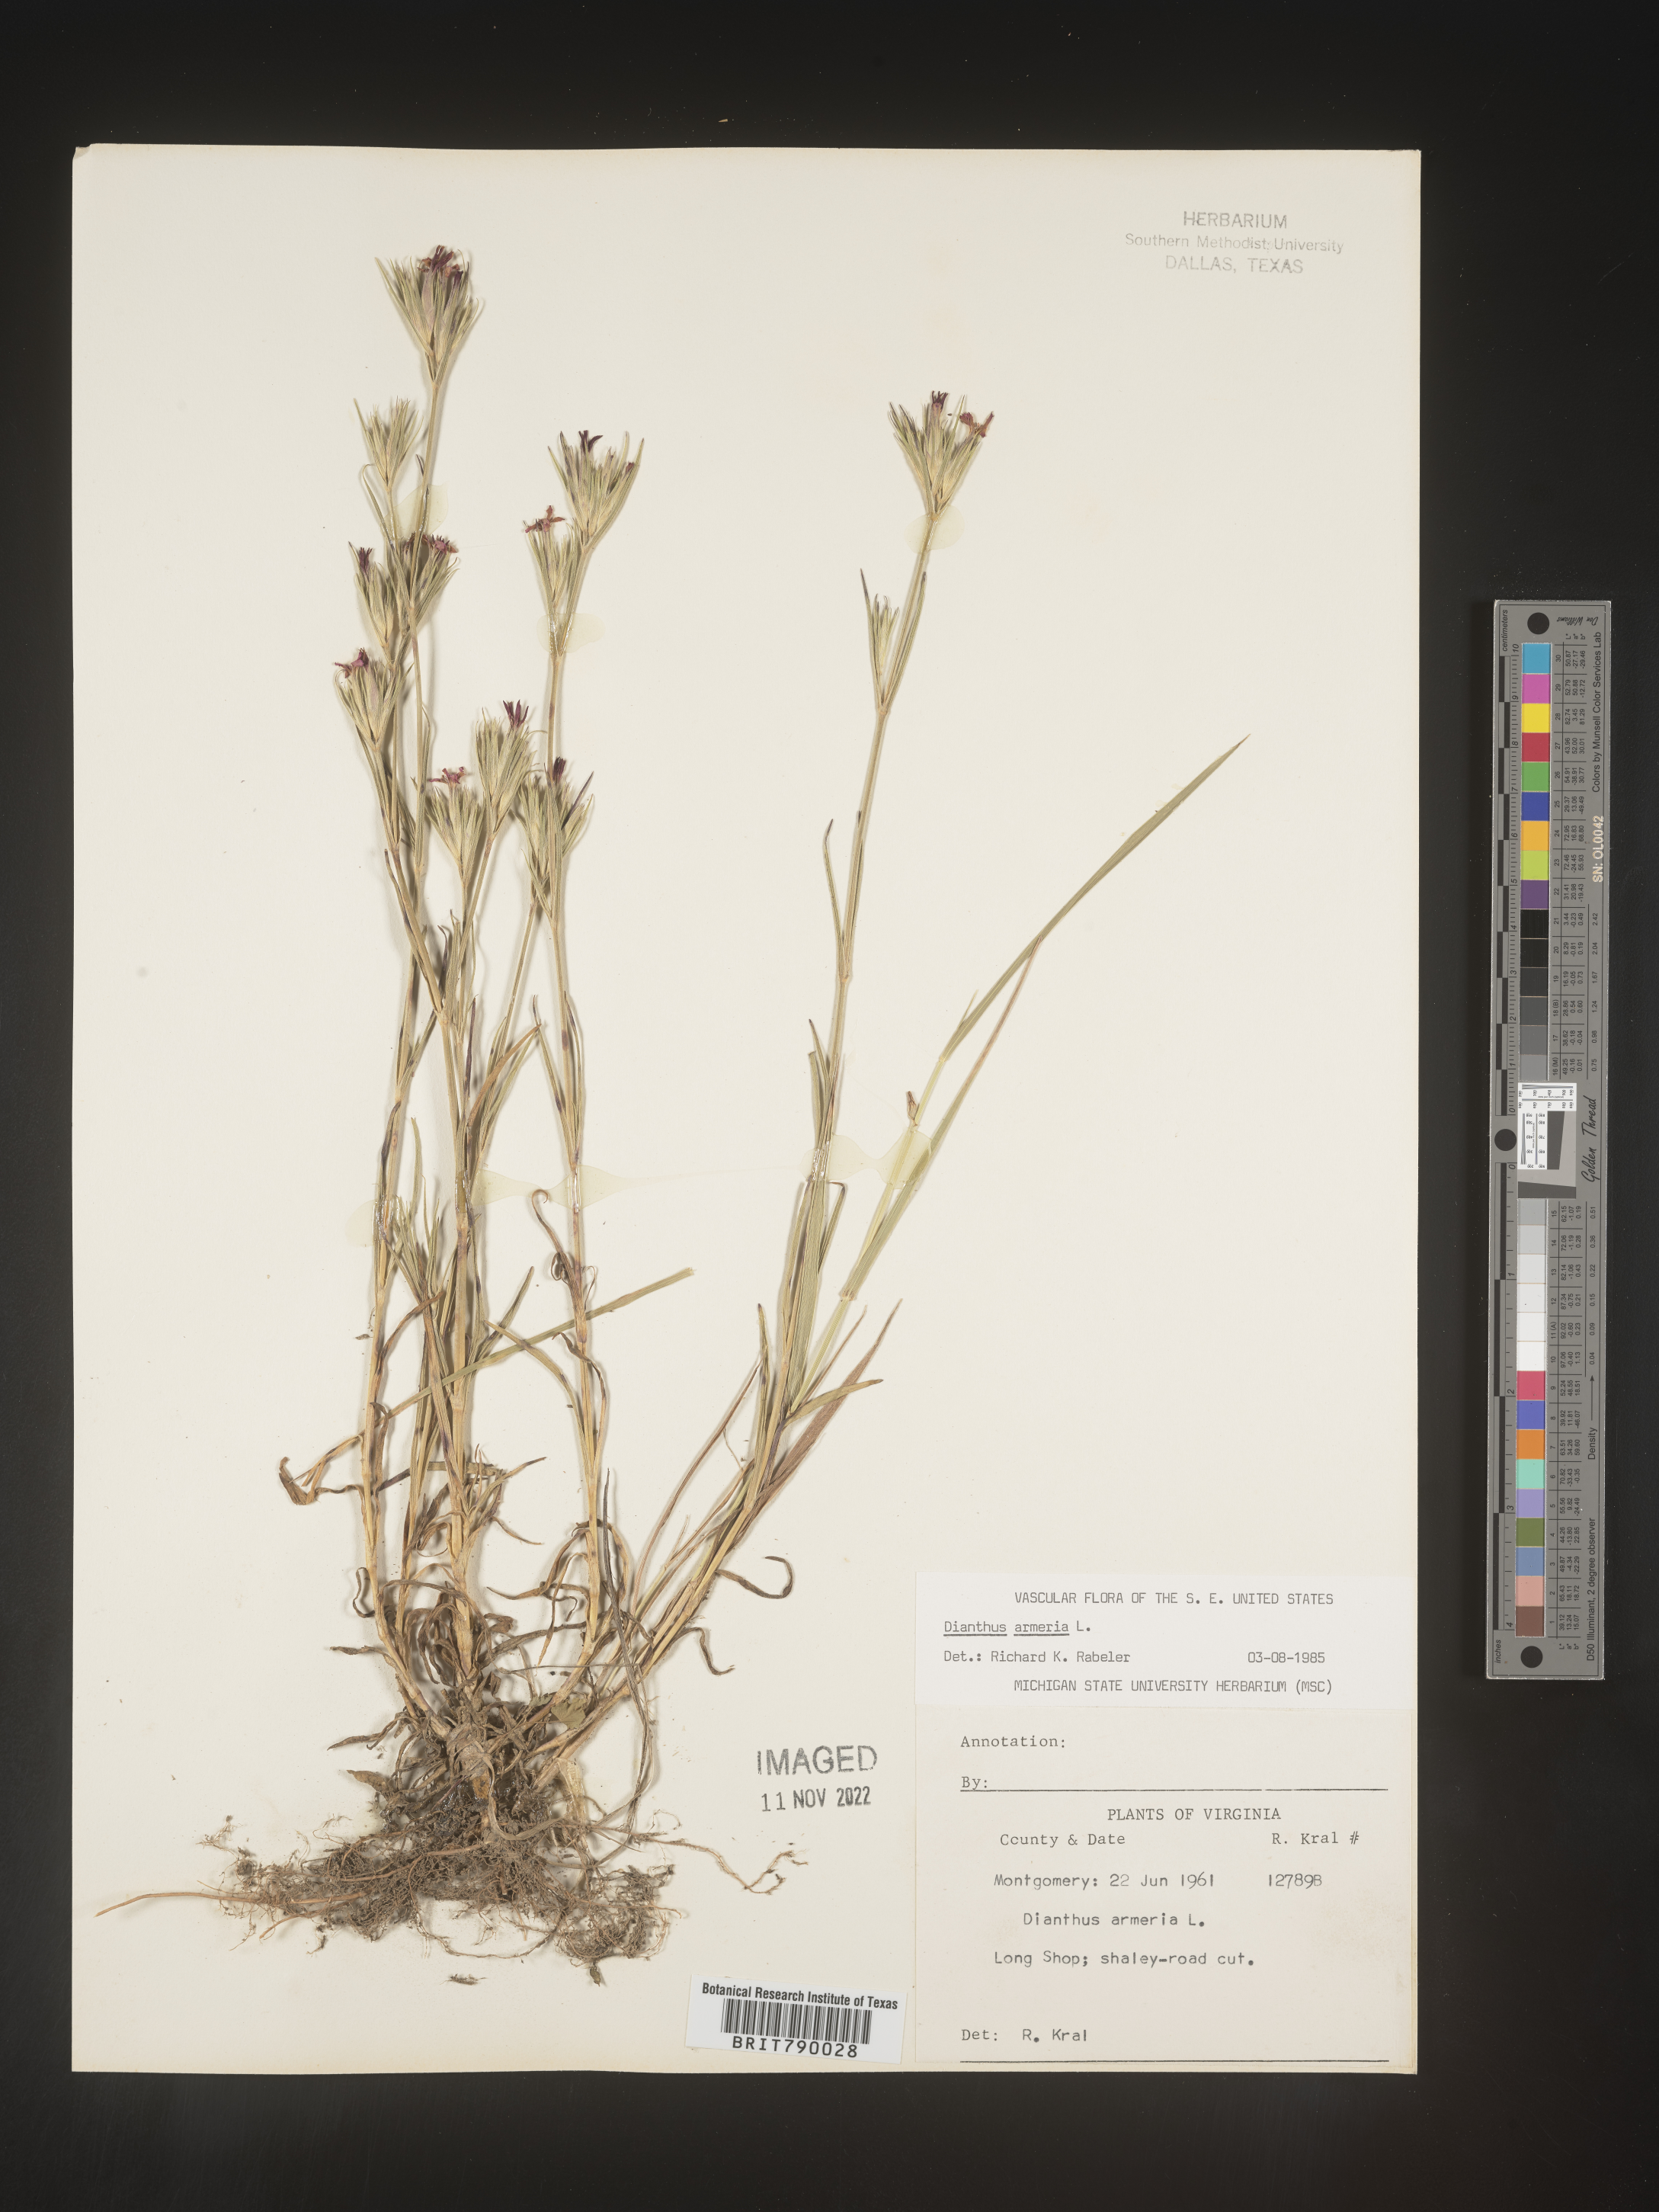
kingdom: Plantae
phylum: Tracheophyta
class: Magnoliopsida
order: Caryophyllales
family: Caryophyllaceae
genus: Dianthus
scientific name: Dianthus armeria
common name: Deptford pink
